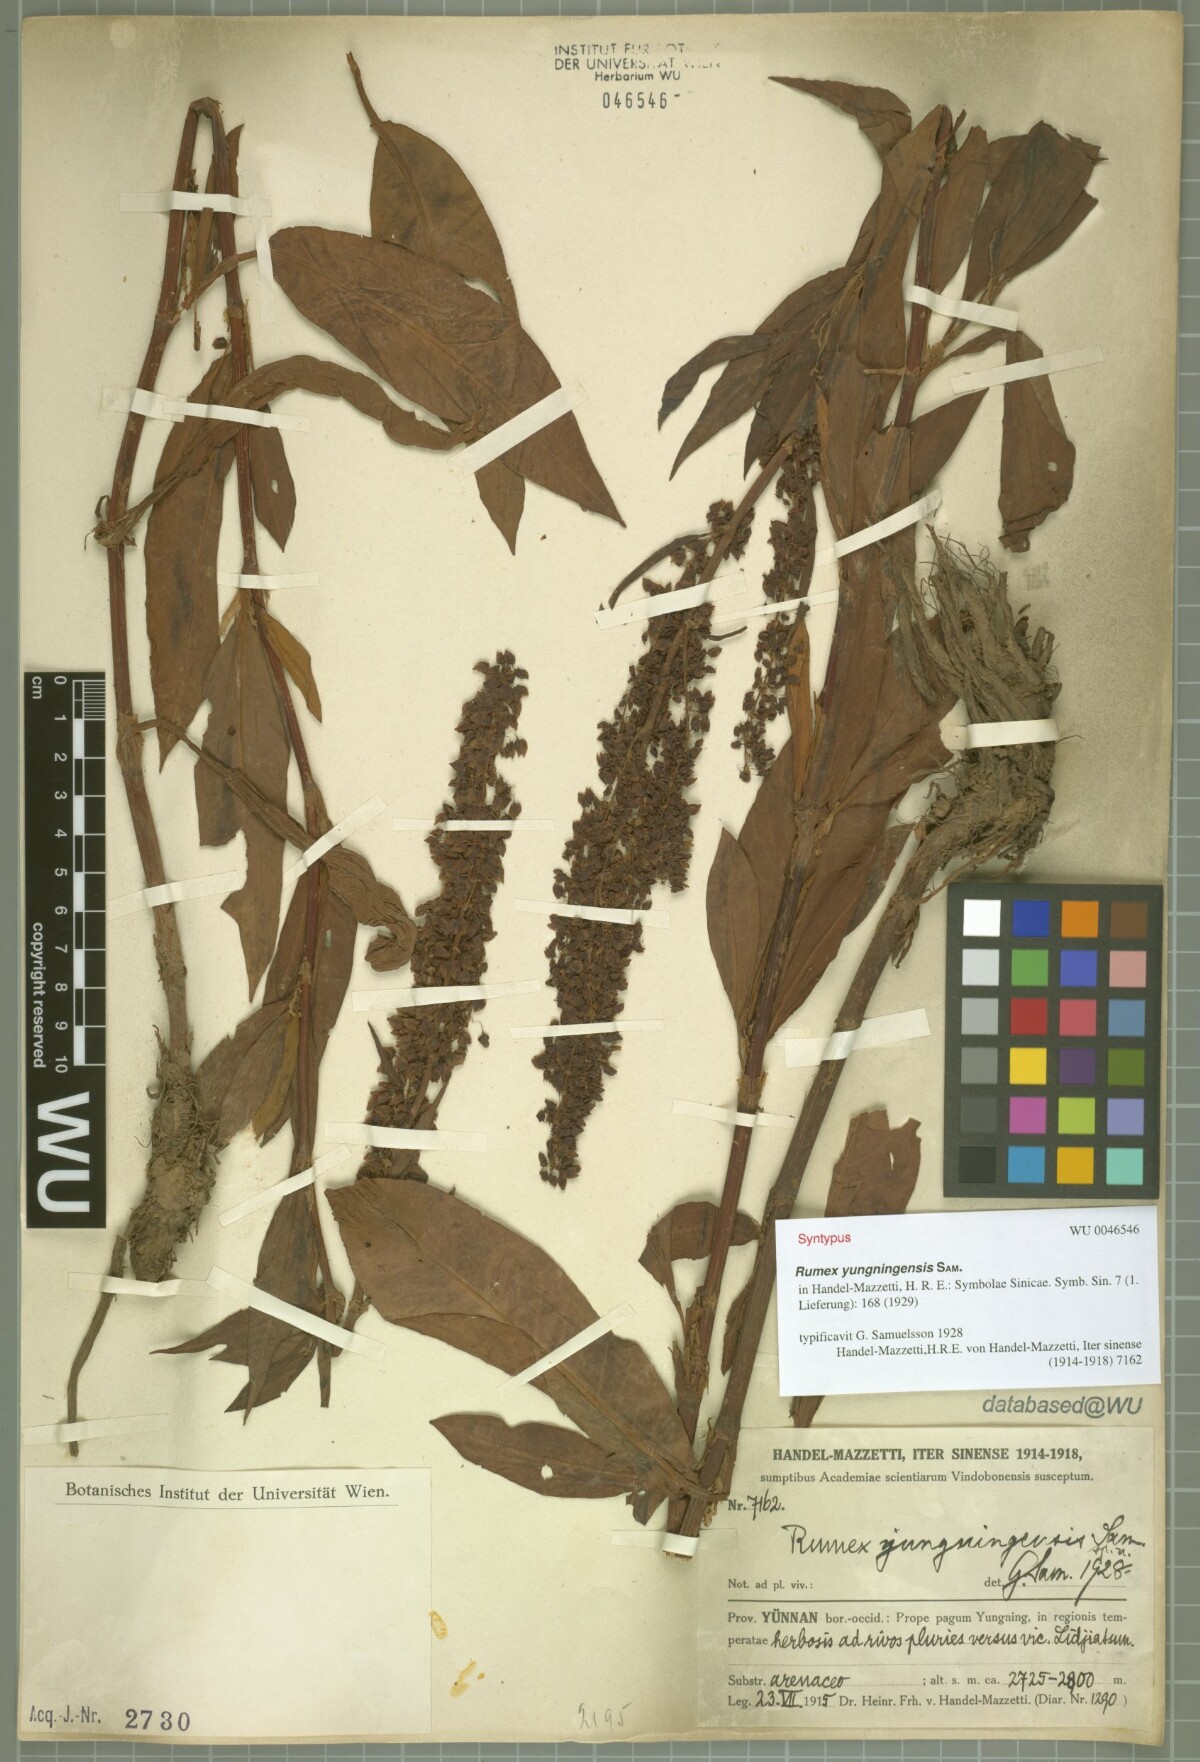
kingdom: Plantae
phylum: Tracheophyta
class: Magnoliopsida
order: Caryophyllales
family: Polygonaceae
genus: Rumex
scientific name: Rumex yungningensis
